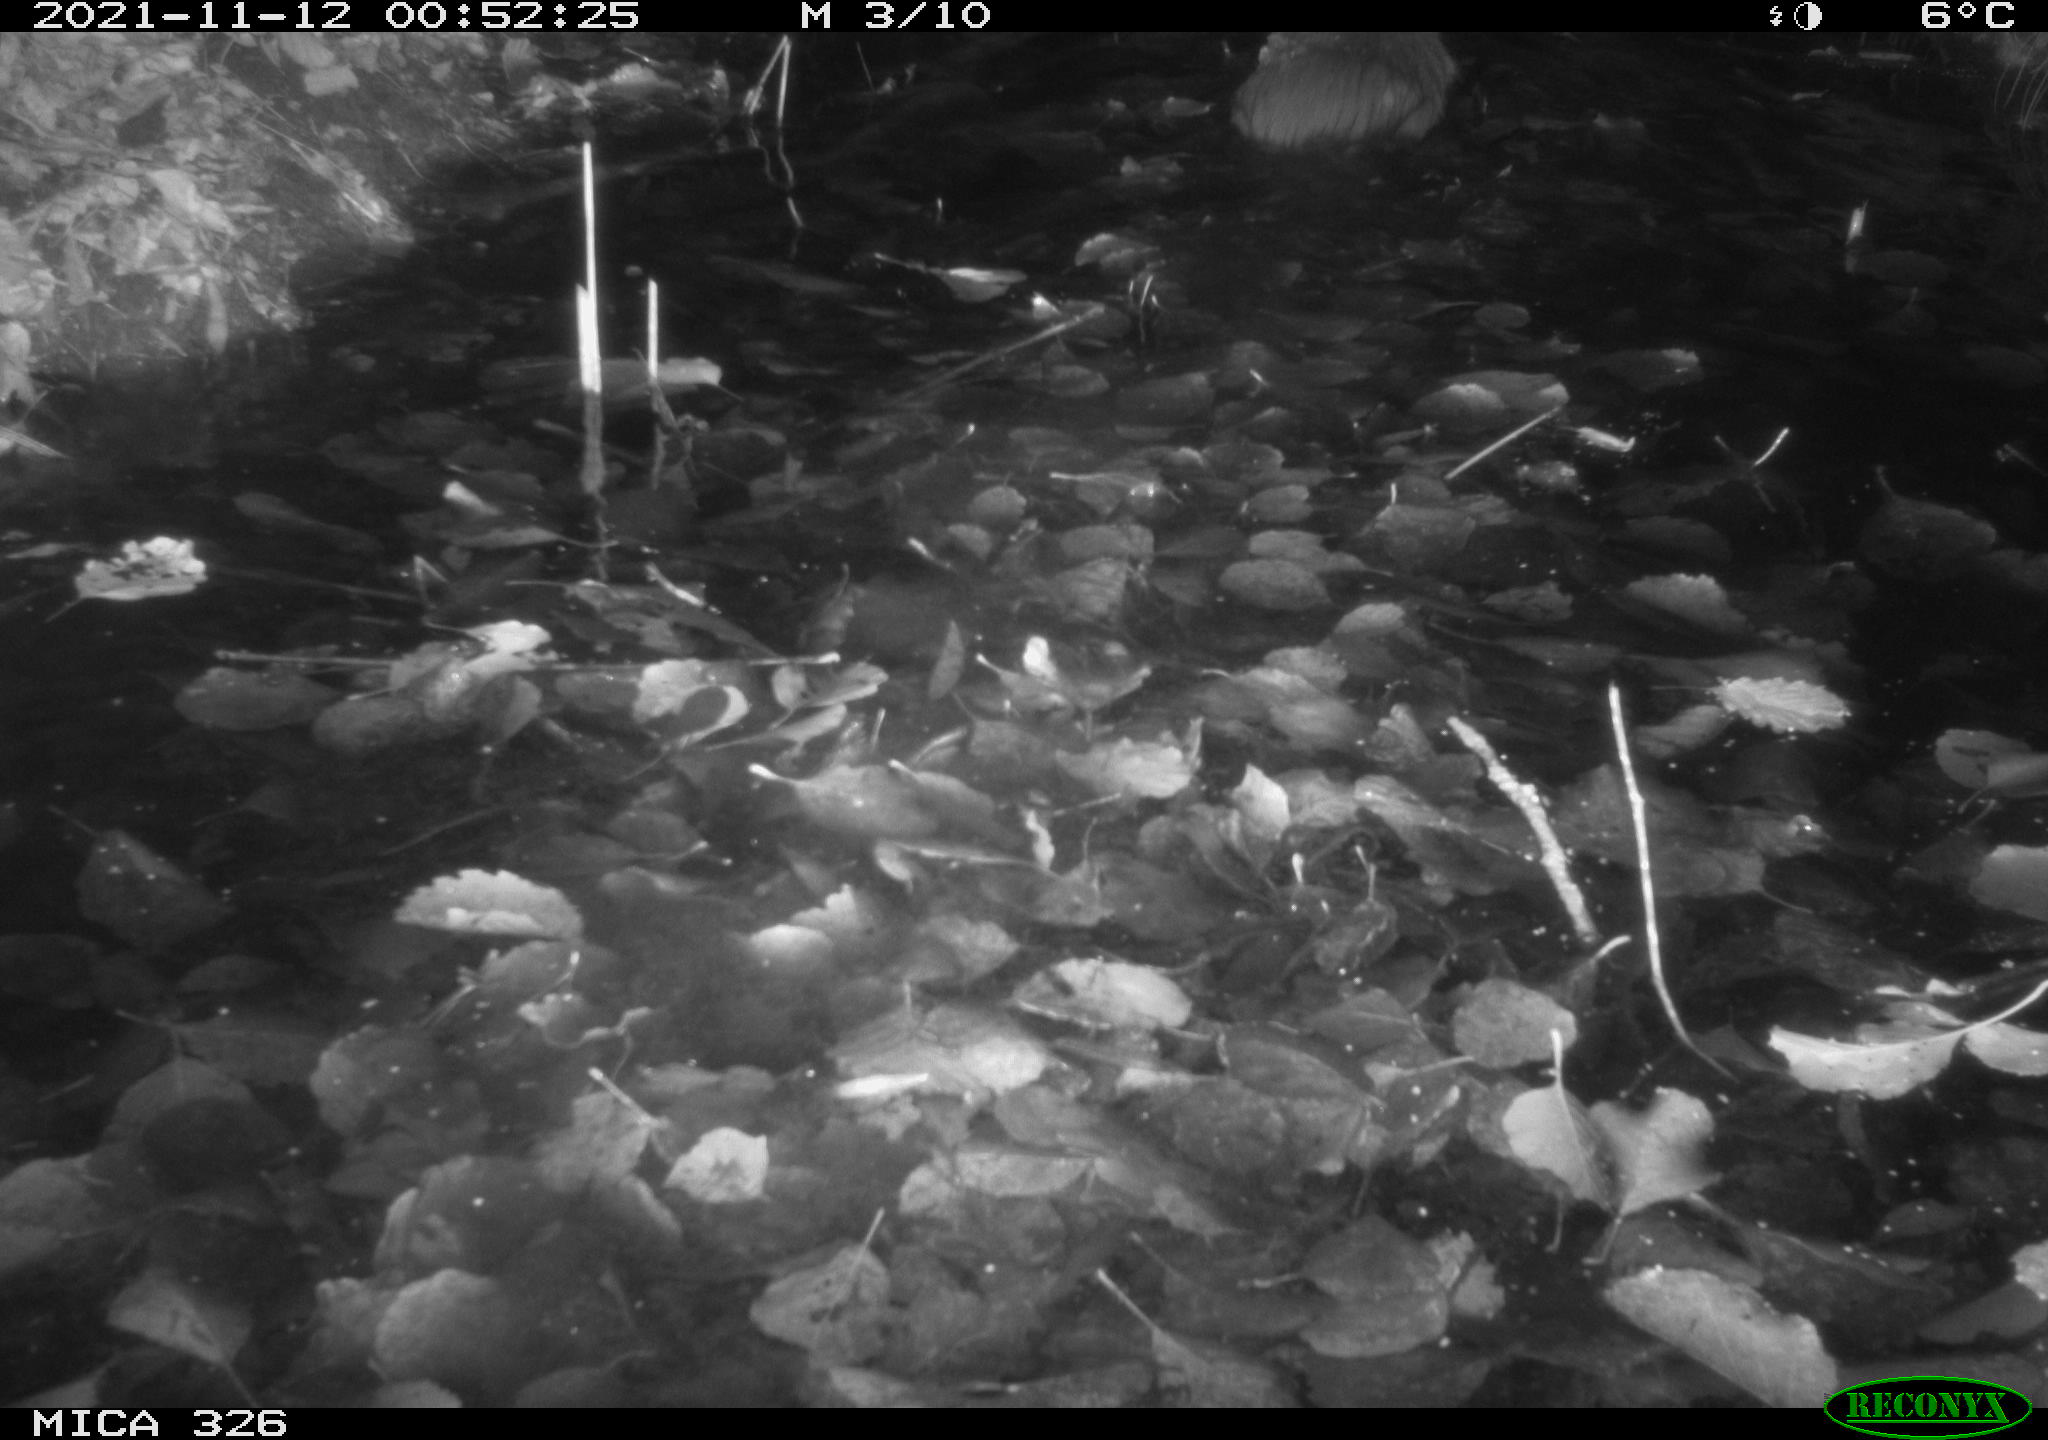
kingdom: Animalia
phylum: Chordata
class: Mammalia
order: Rodentia
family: Myocastoridae
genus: Myocastor
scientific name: Myocastor coypus
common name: Coypu
